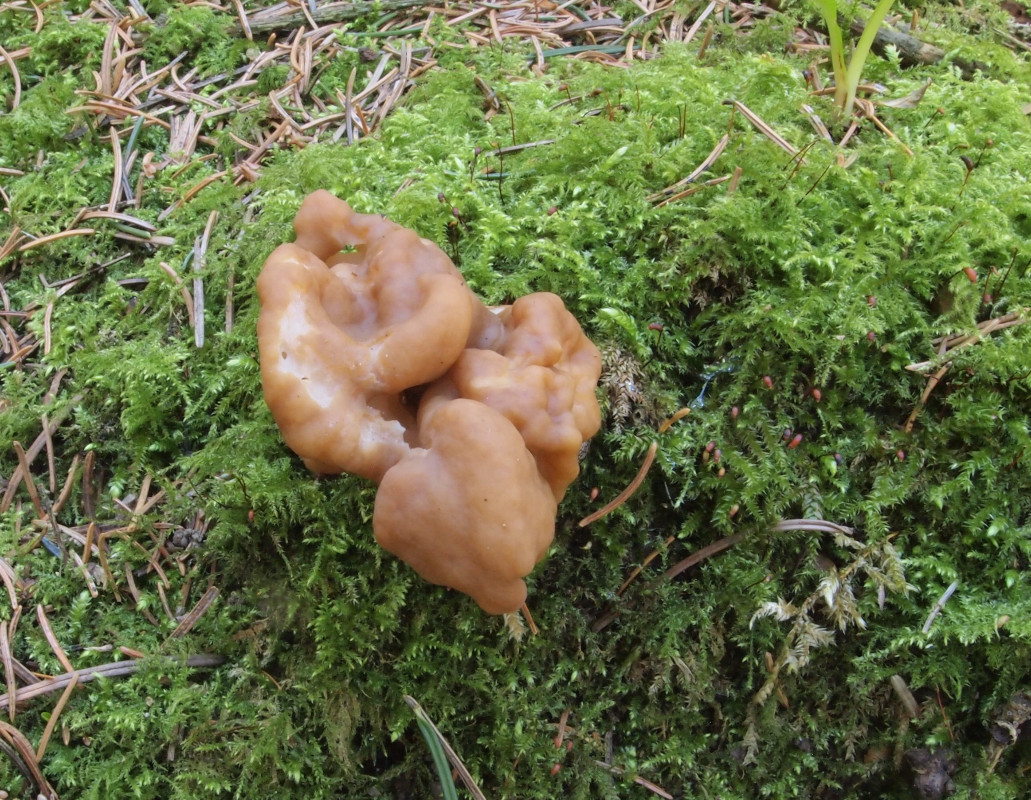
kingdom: Fungi
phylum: Ascomycota
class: Pezizomycetes
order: Pezizales
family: Discinaceae
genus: Gyromitra
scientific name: Gyromitra gigas
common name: kæmpe-stenmorkel
